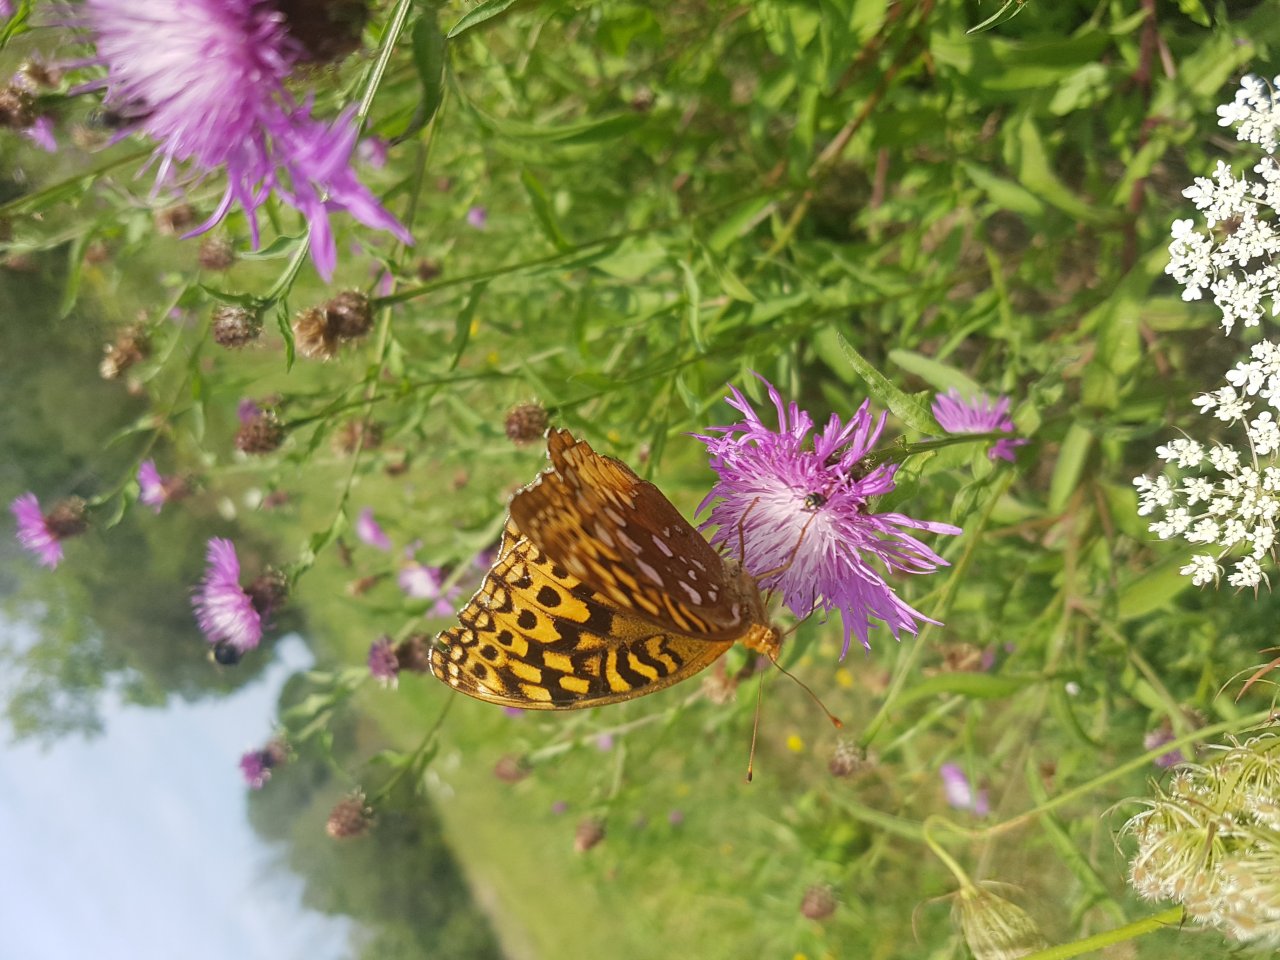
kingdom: Animalia
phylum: Arthropoda
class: Insecta
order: Lepidoptera
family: Nymphalidae
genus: Speyeria
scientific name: Speyeria cybele
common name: Great Spangled Fritillary
